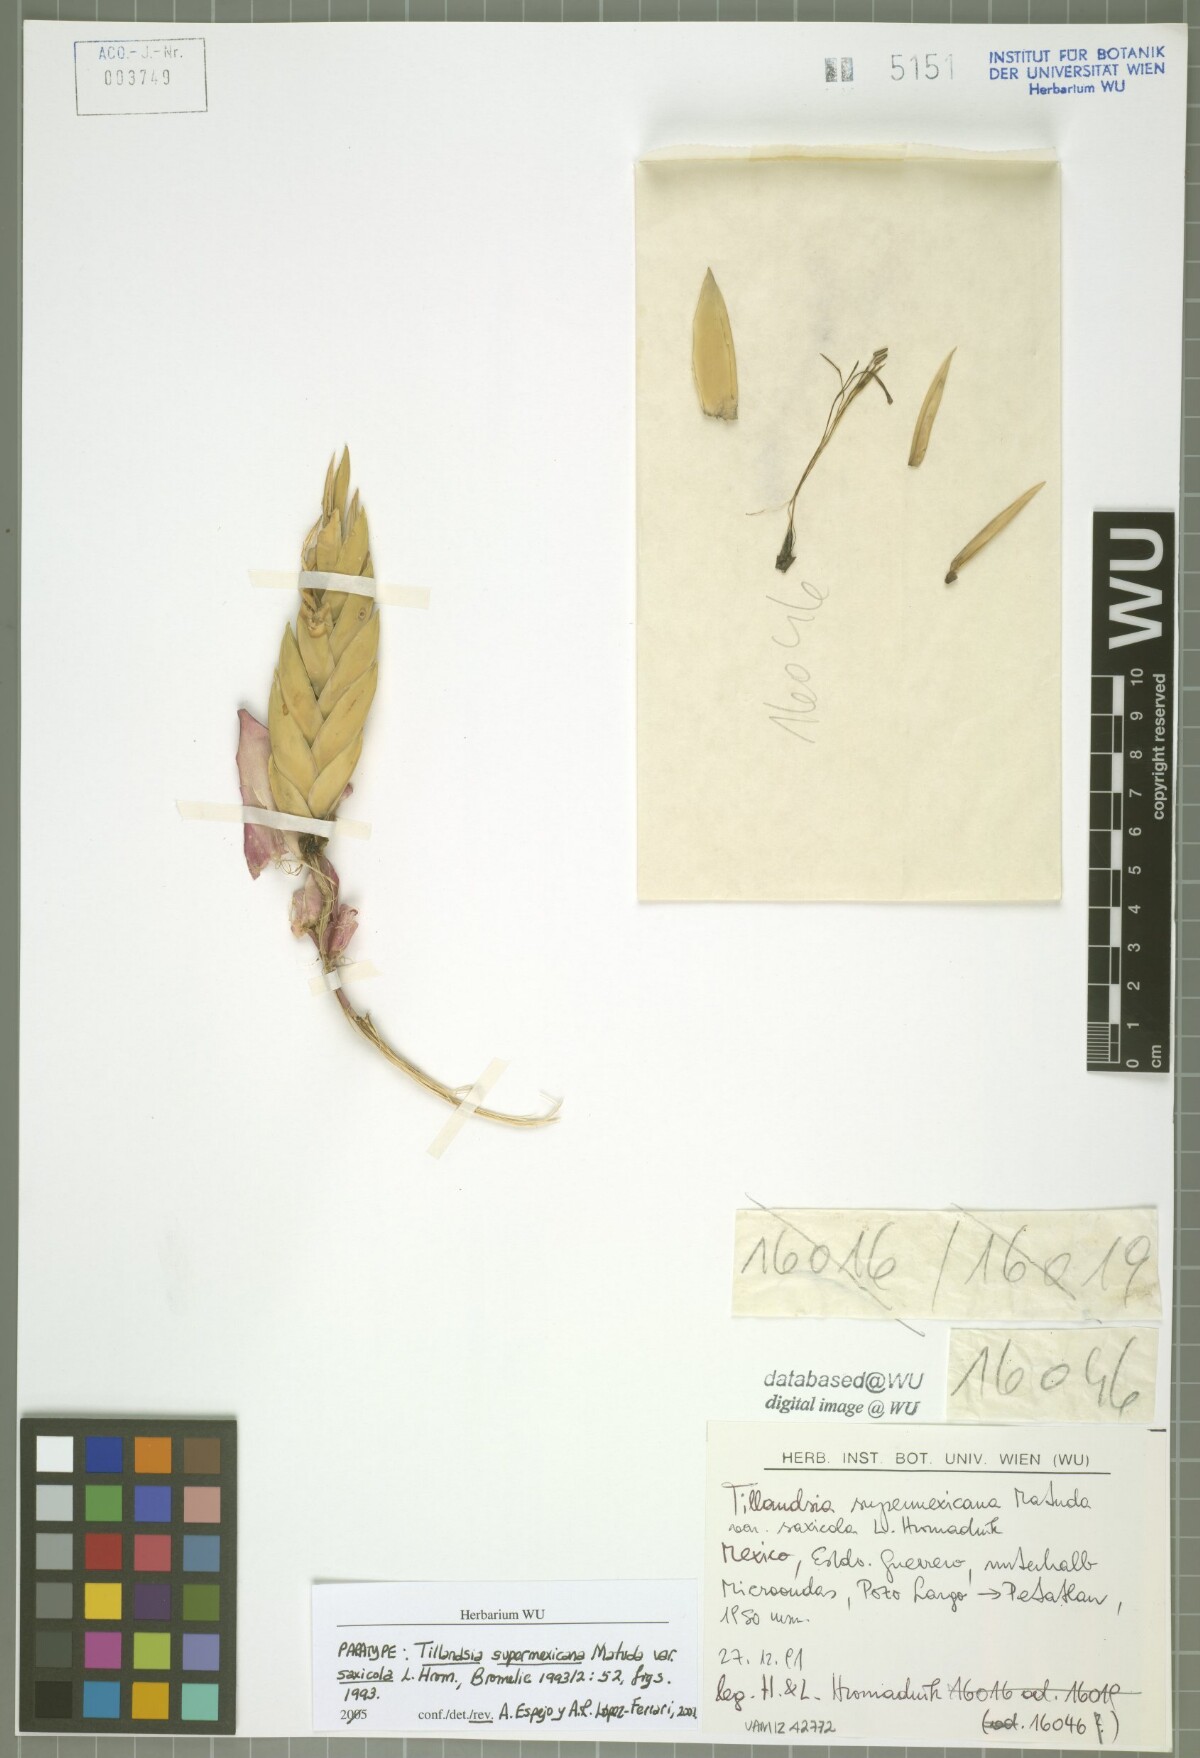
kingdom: Plantae
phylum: Tracheophyta
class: Liliopsida
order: Poales
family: Bromeliaceae
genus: Tillandsia
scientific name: Tillandsia supermexicana
